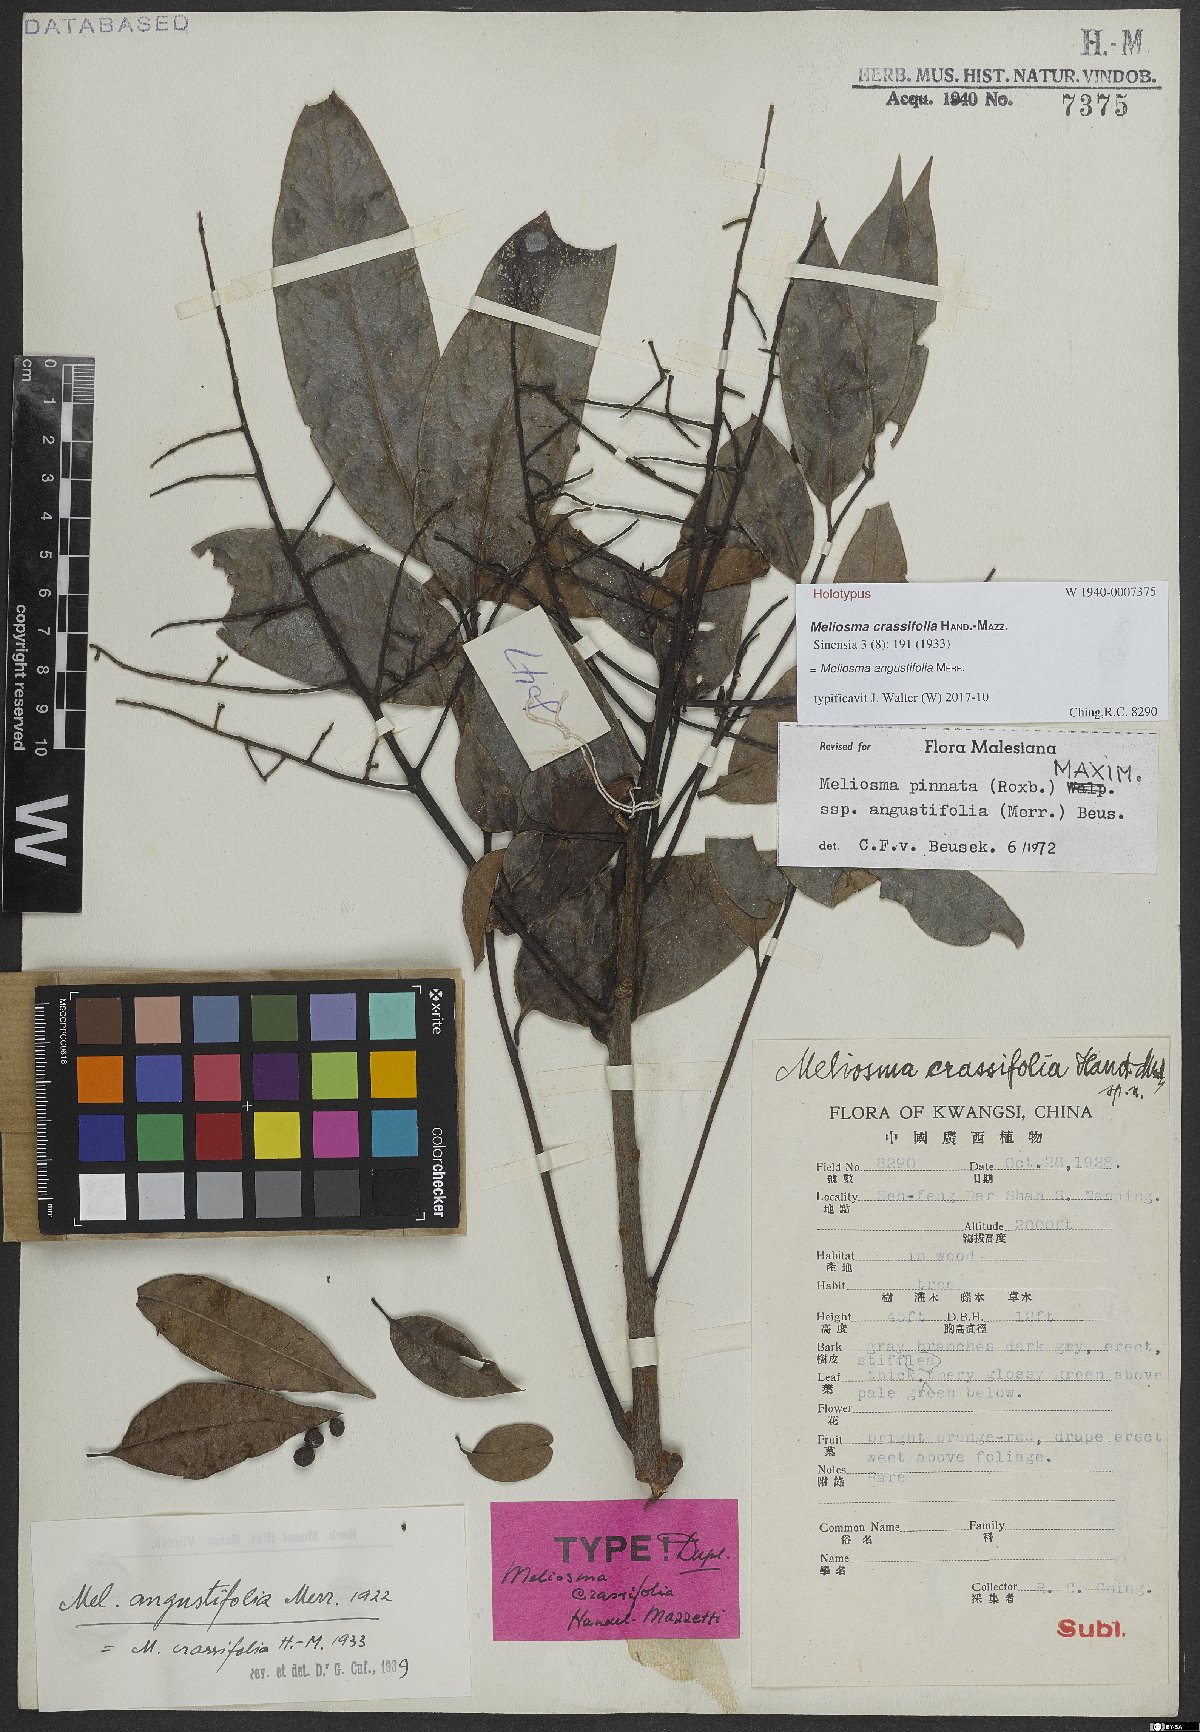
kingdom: Plantae
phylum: Tracheophyta
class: Magnoliopsida
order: Proteales
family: Sabiaceae
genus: Meliosma
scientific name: Meliosma angustifolia
